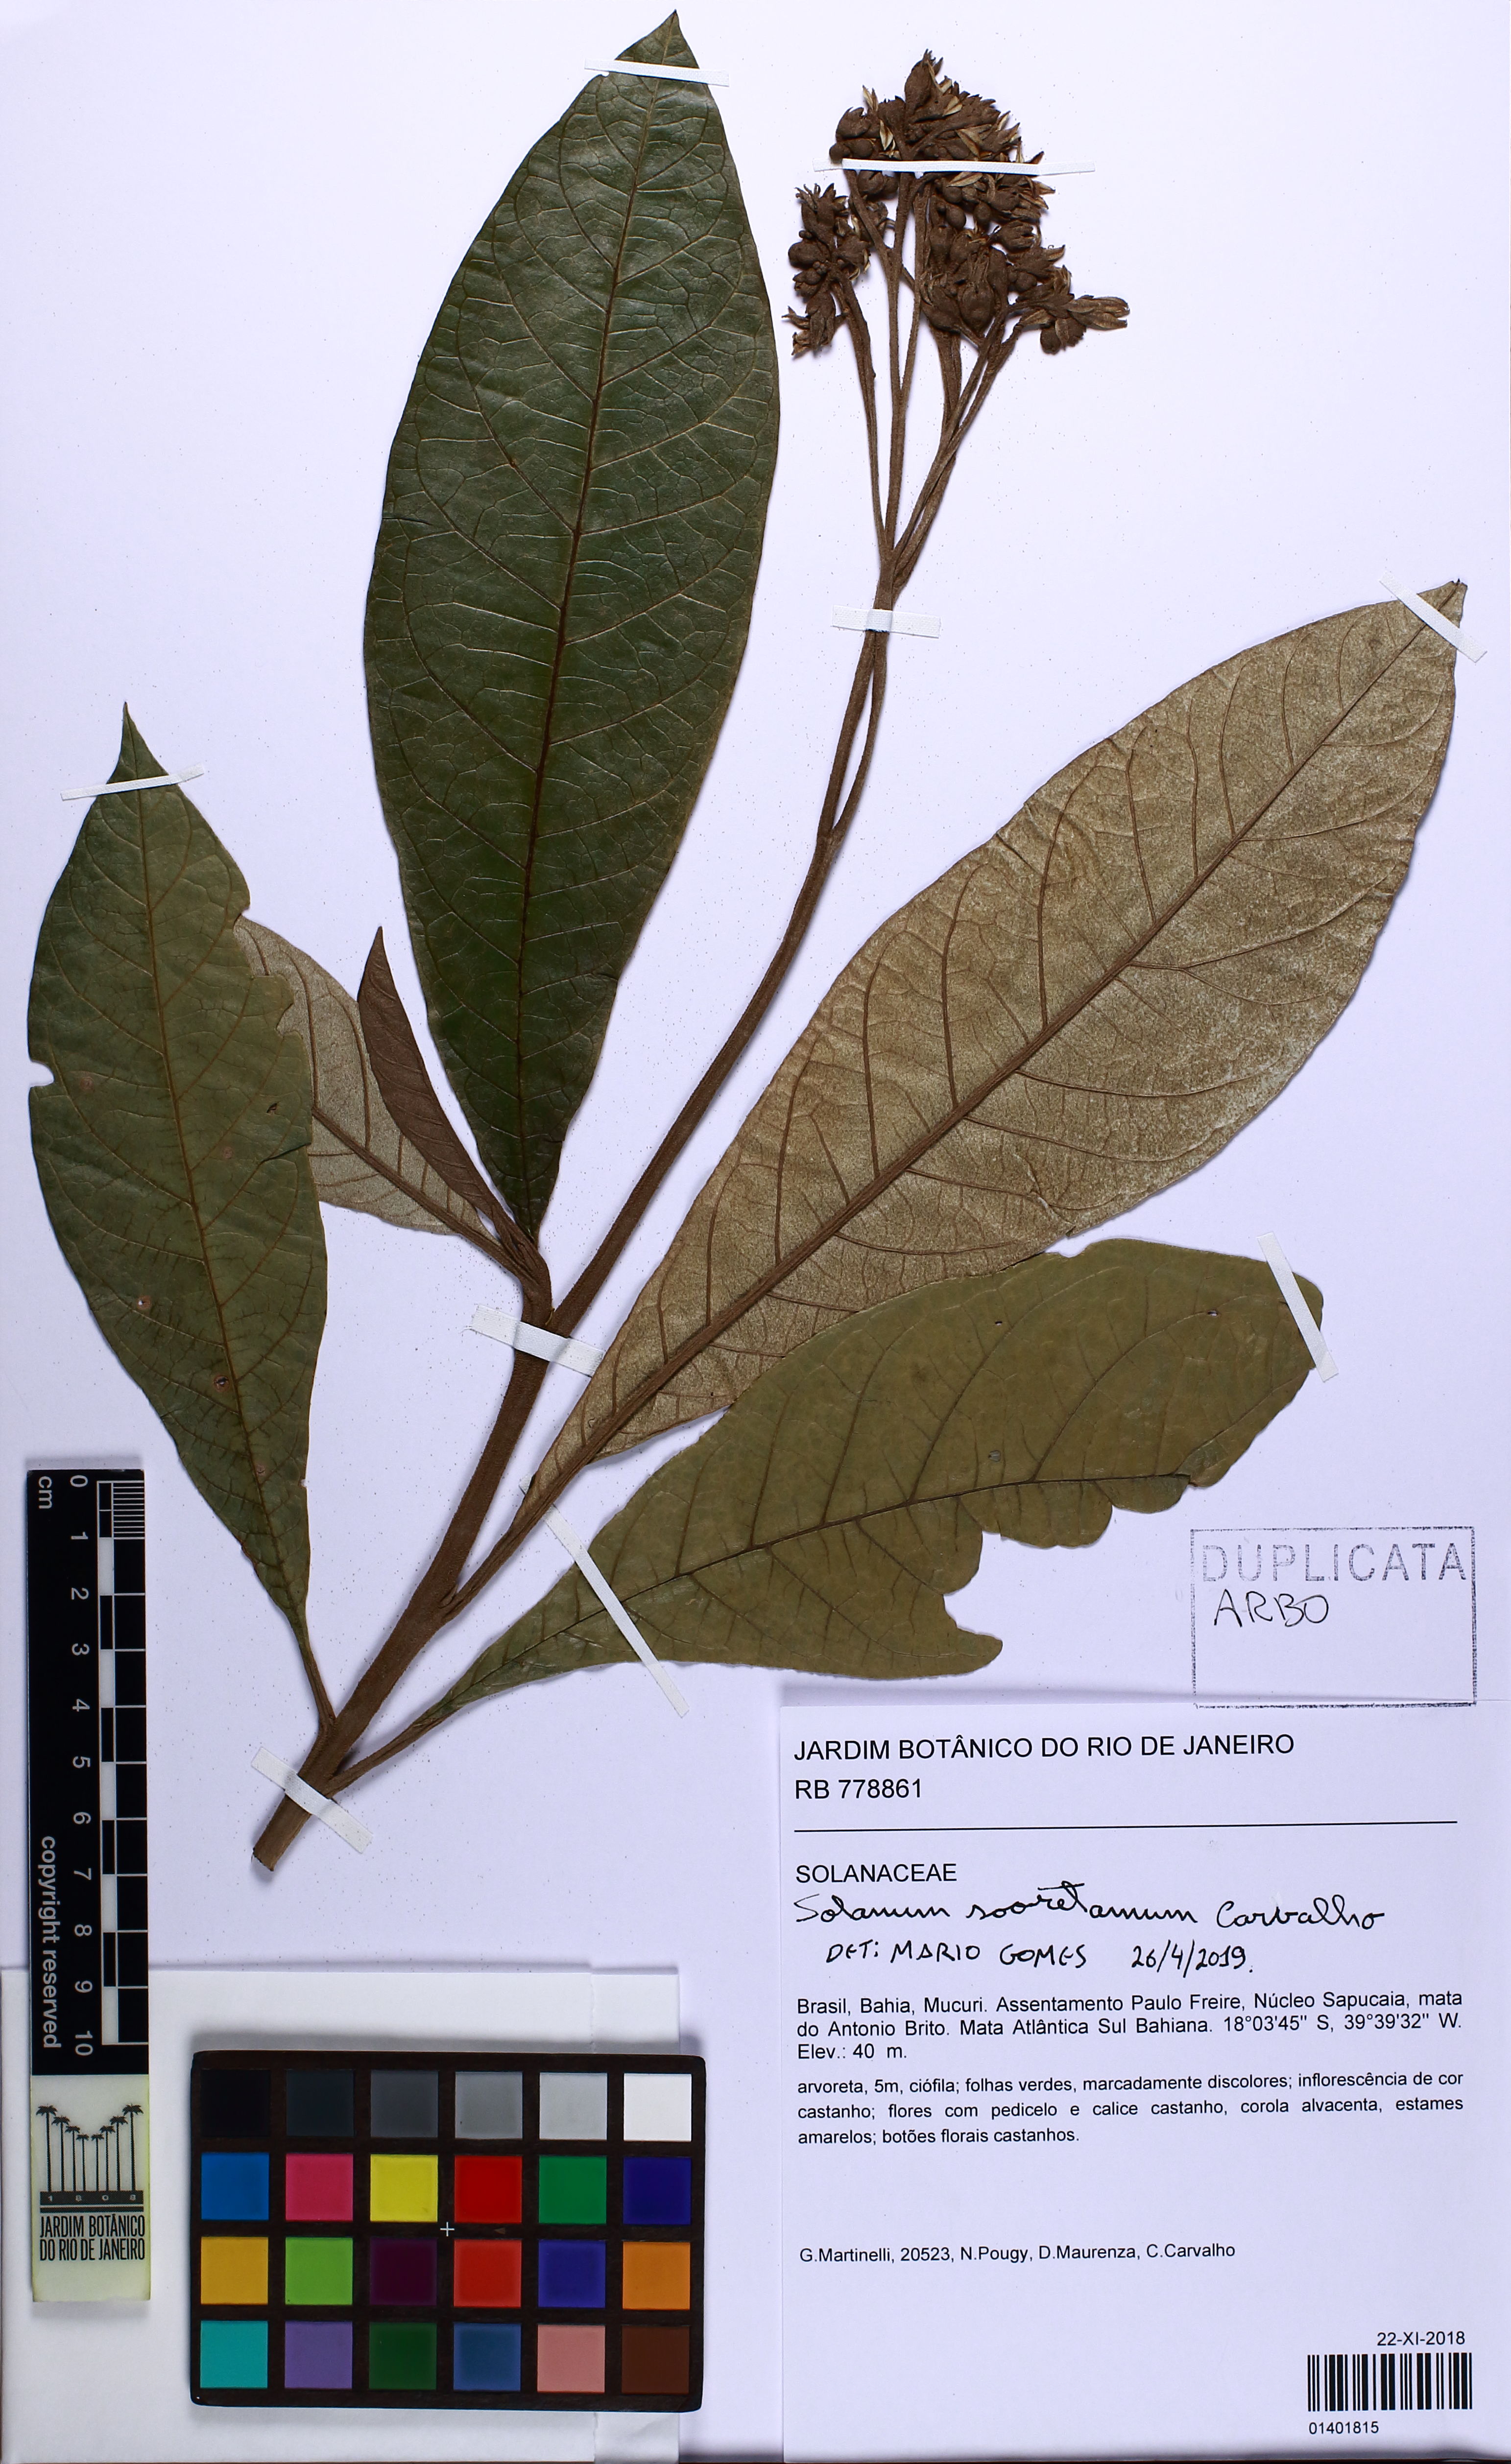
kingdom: Plantae
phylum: Tracheophyta
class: Magnoliopsida
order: Solanales
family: Solanaceae
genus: Solanum
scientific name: Solanum sooretamum
